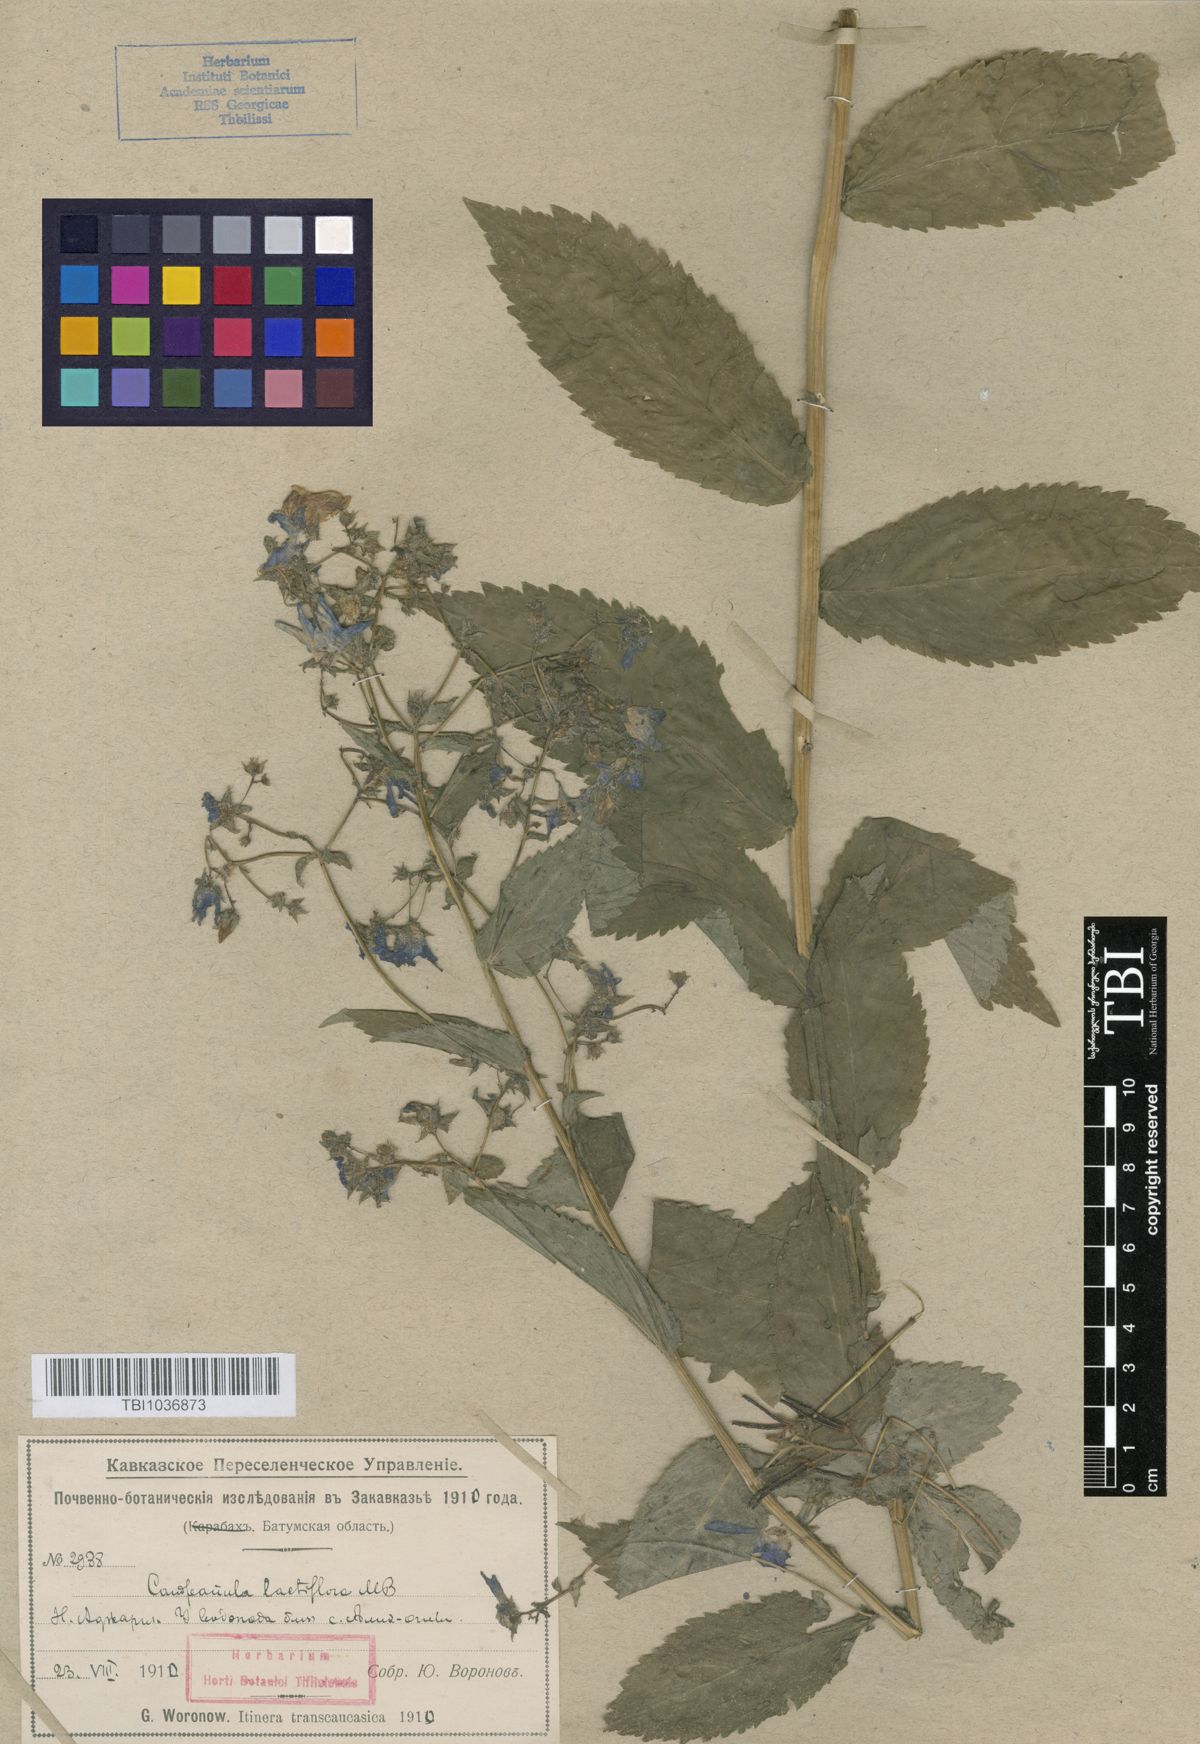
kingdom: Plantae
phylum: Tracheophyta
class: Magnoliopsida
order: Asterales
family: Campanulaceae
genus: Campanula
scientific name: Campanula lactiflora
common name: Milky bellflower
